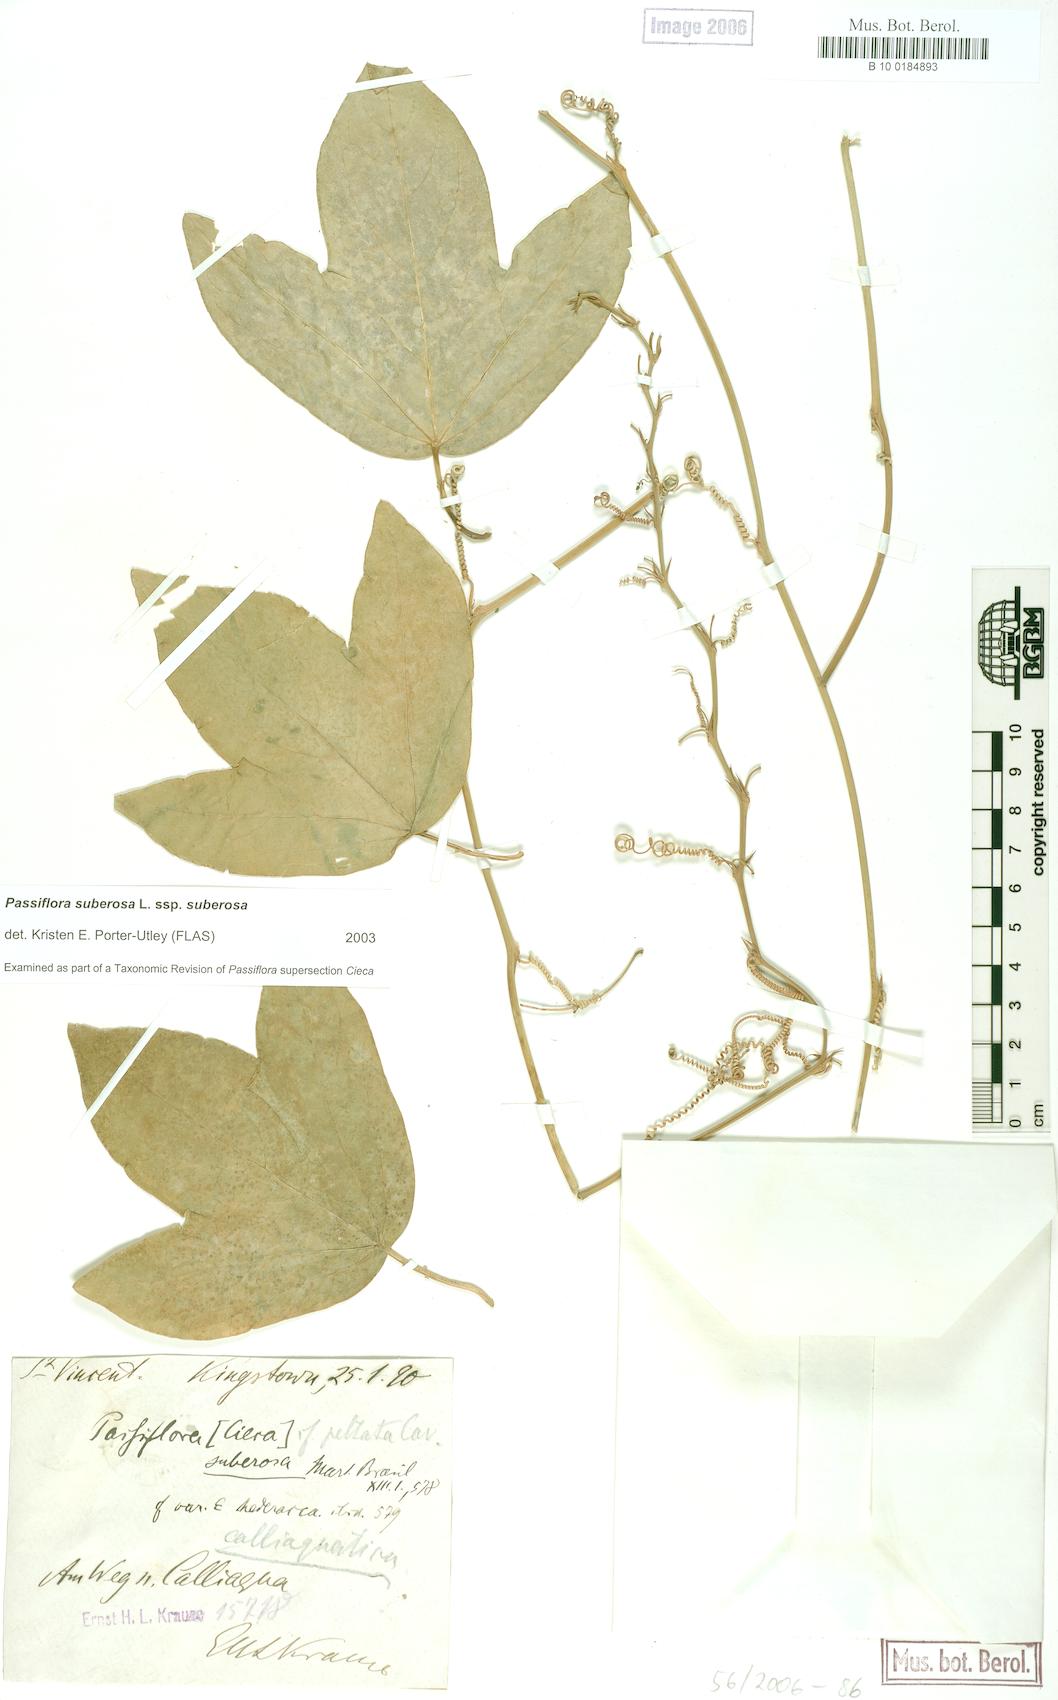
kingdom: Plantae
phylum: Tracheophyta
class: Magnoliopsida
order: Malpighiales
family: Passifloraceae
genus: Passiflora
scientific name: Passiflora suberosa
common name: Wild passionfruit
